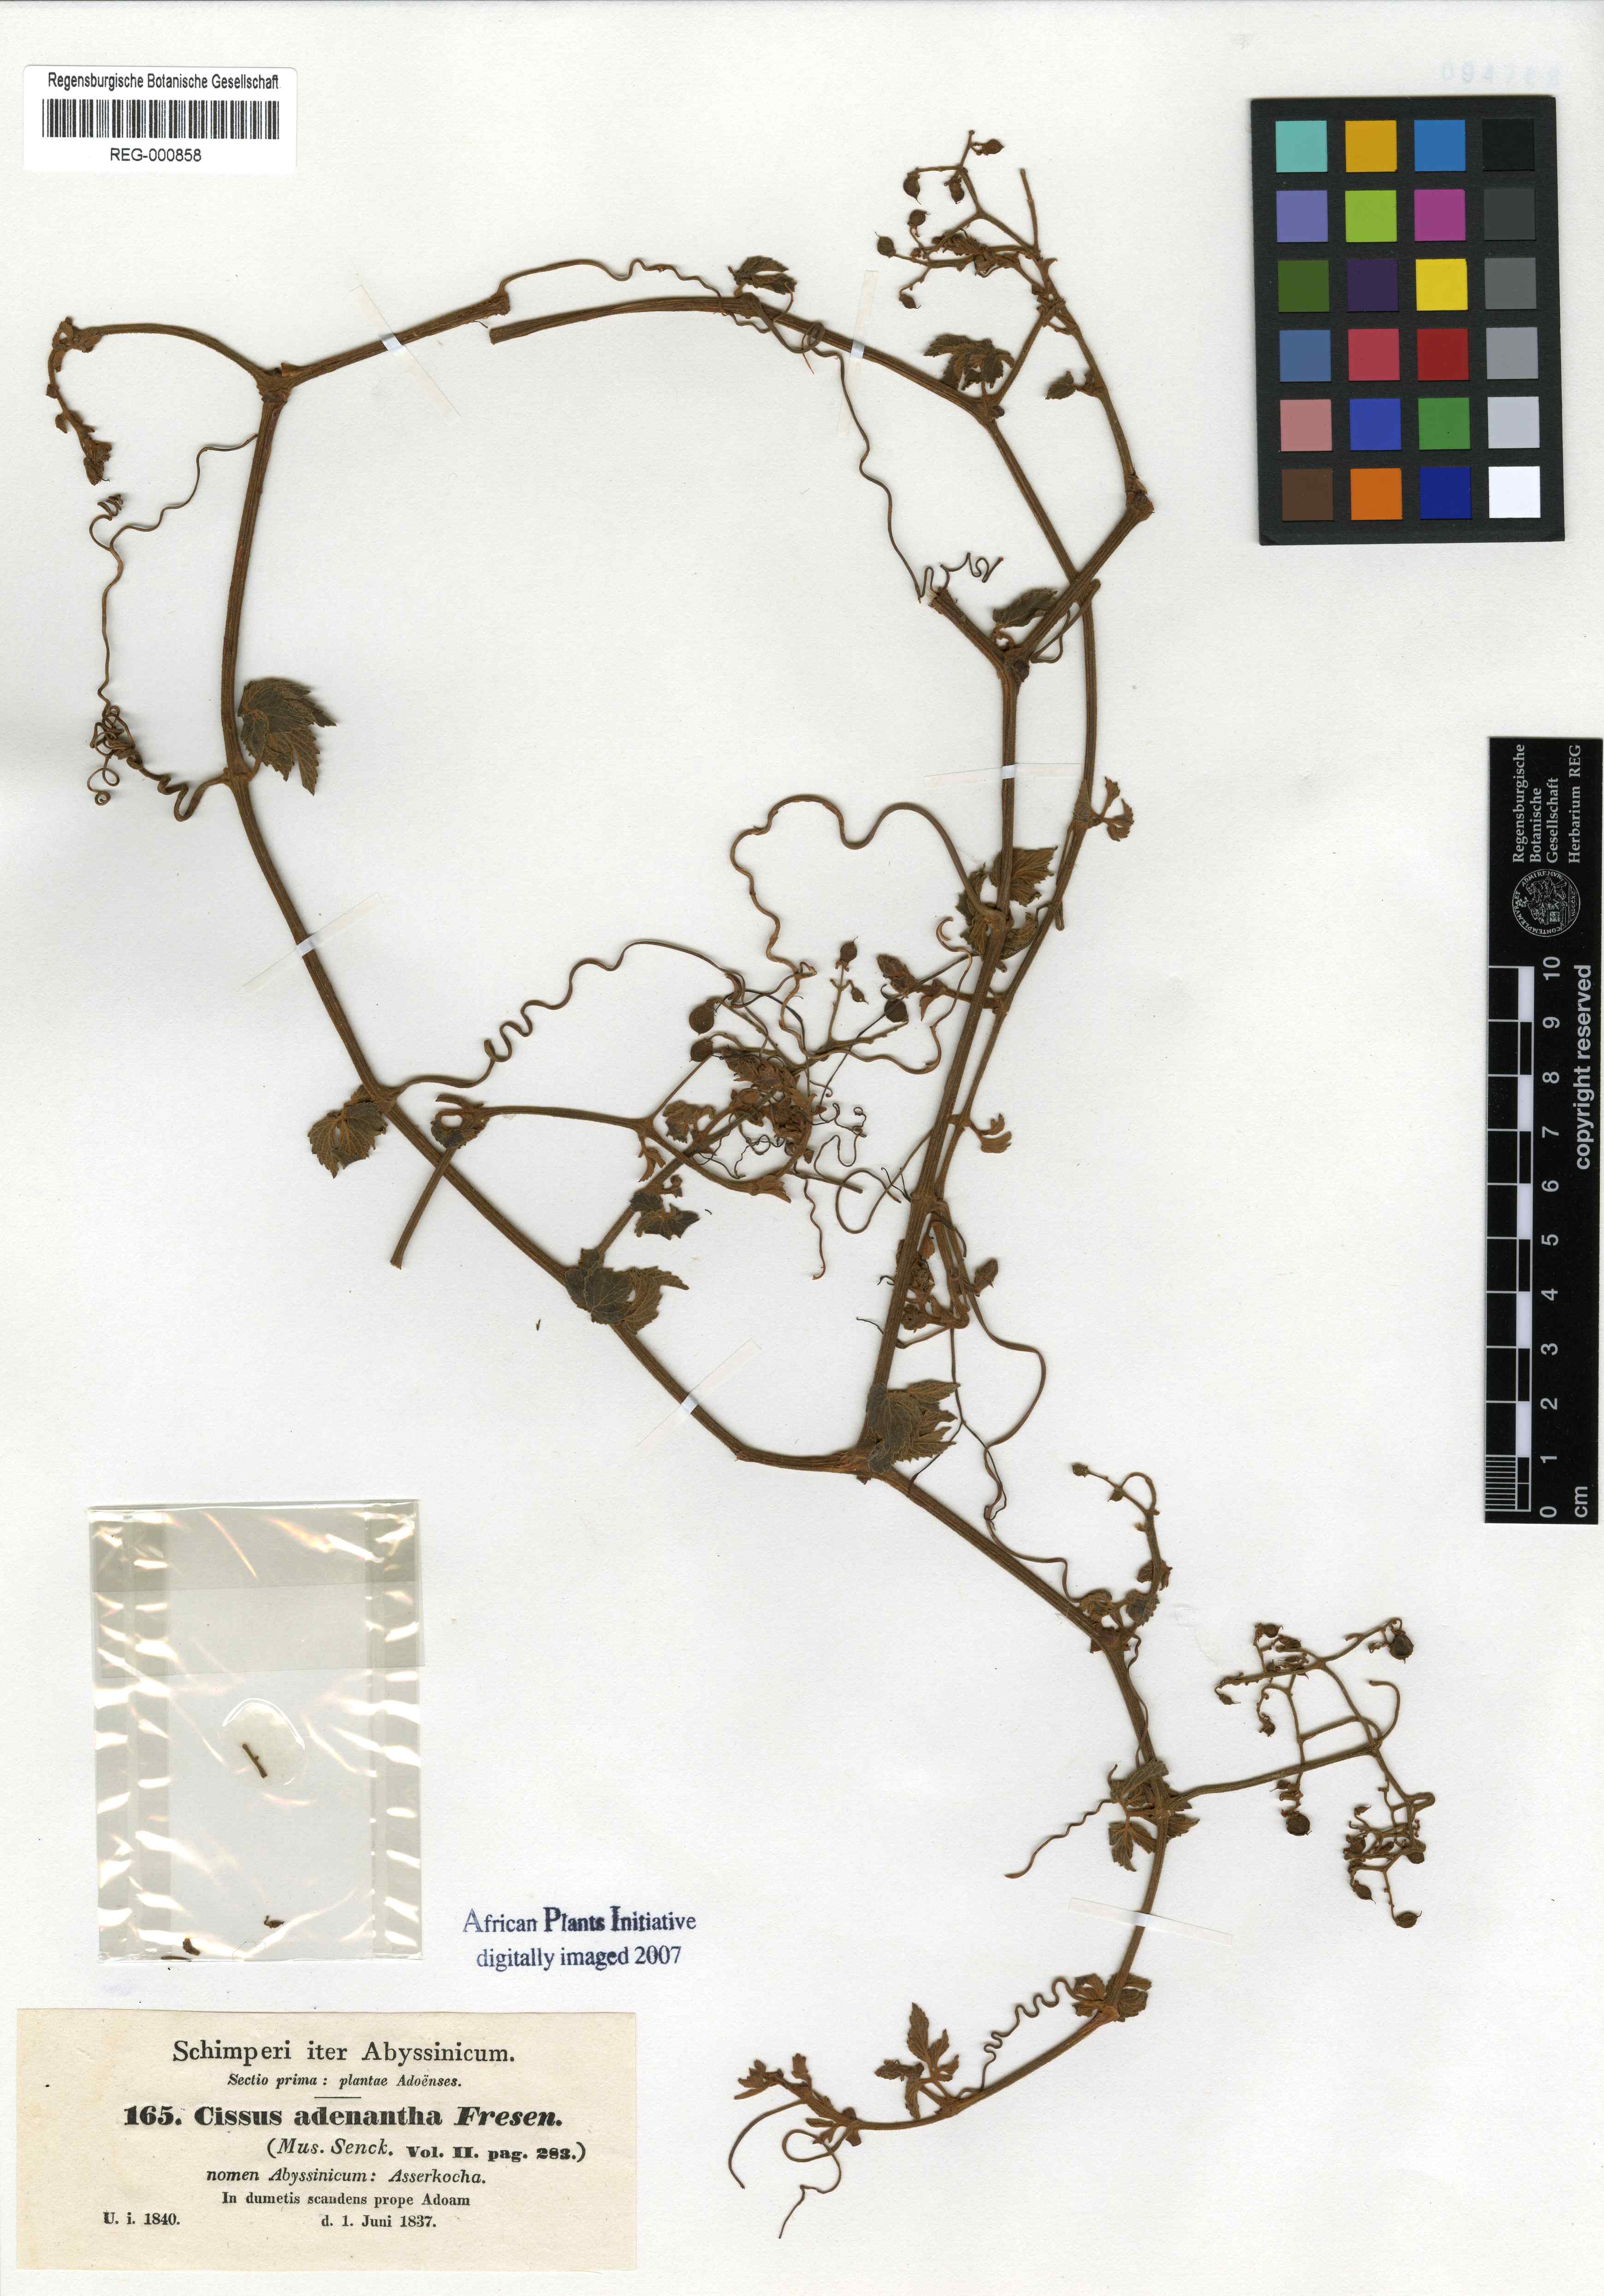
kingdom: Plantae
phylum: Tracheophyta
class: Magnoliopsida
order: Vitales
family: Vitaceae
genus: Cyphostemma
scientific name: Cyphostemma adenanthum
